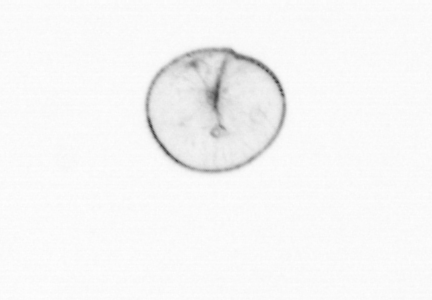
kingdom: Chromista
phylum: Myzozoa
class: Dinophyceae
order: Noctilucales
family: Noctilucaceae
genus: Noctiluca
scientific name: Noctiluca scintillans
